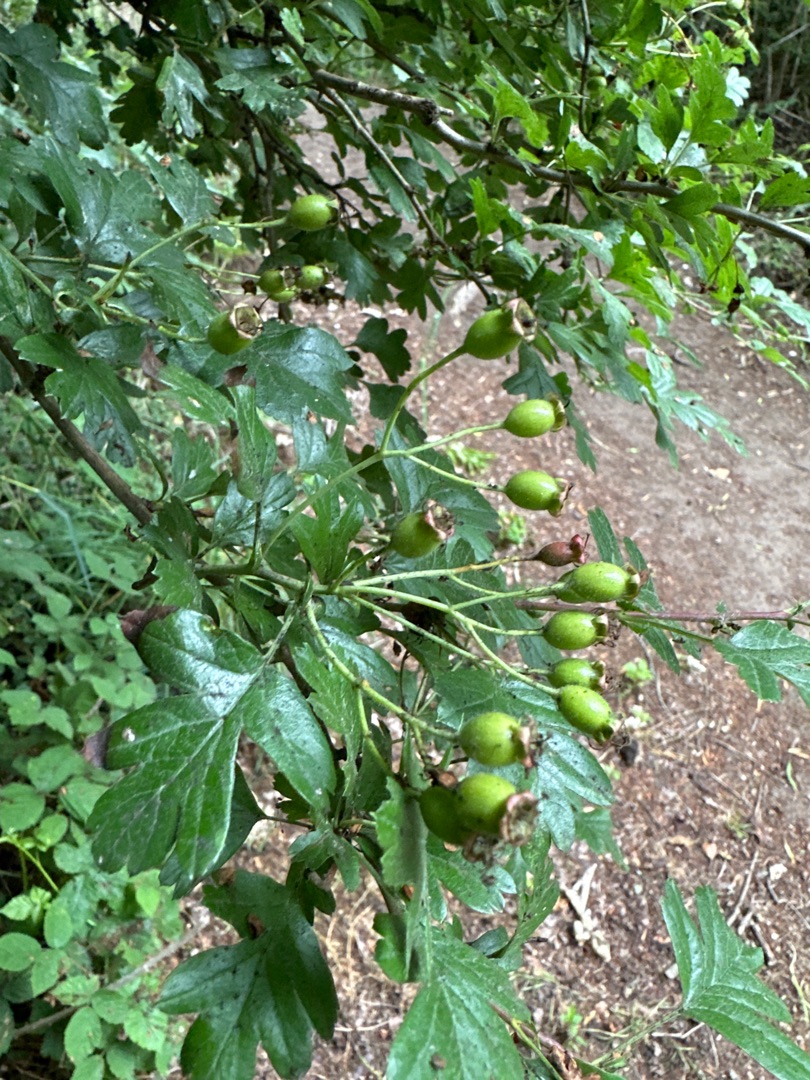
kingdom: Plantae
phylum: Tracheophyta
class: Magnoliopsida
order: Rosales
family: Rosaceae
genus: Crataegus
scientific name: Crataegus monogyna
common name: Engriflet hvidtjørn
